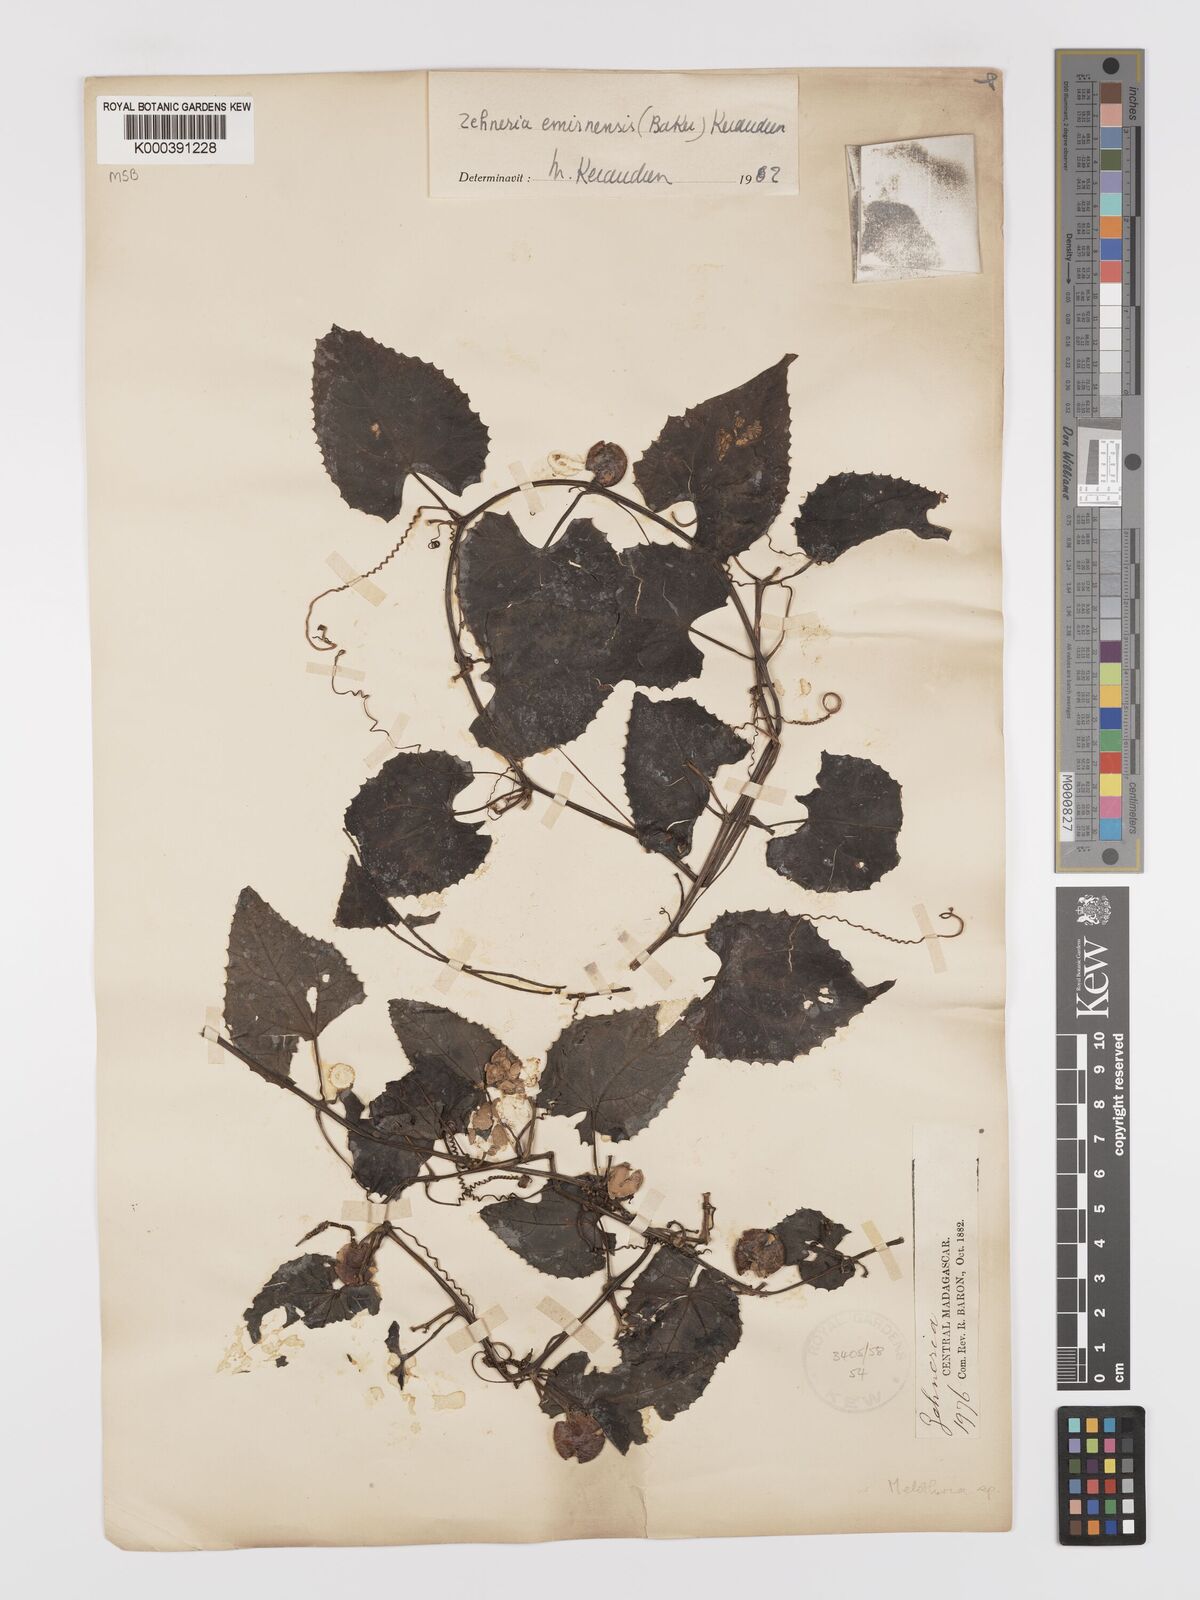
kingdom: Plantae
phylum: Tracheophyta
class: Magnoliopsida
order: Cucurbitales
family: Cucurbitaceae
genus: Zehneria
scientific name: Zehneria emirnensis
